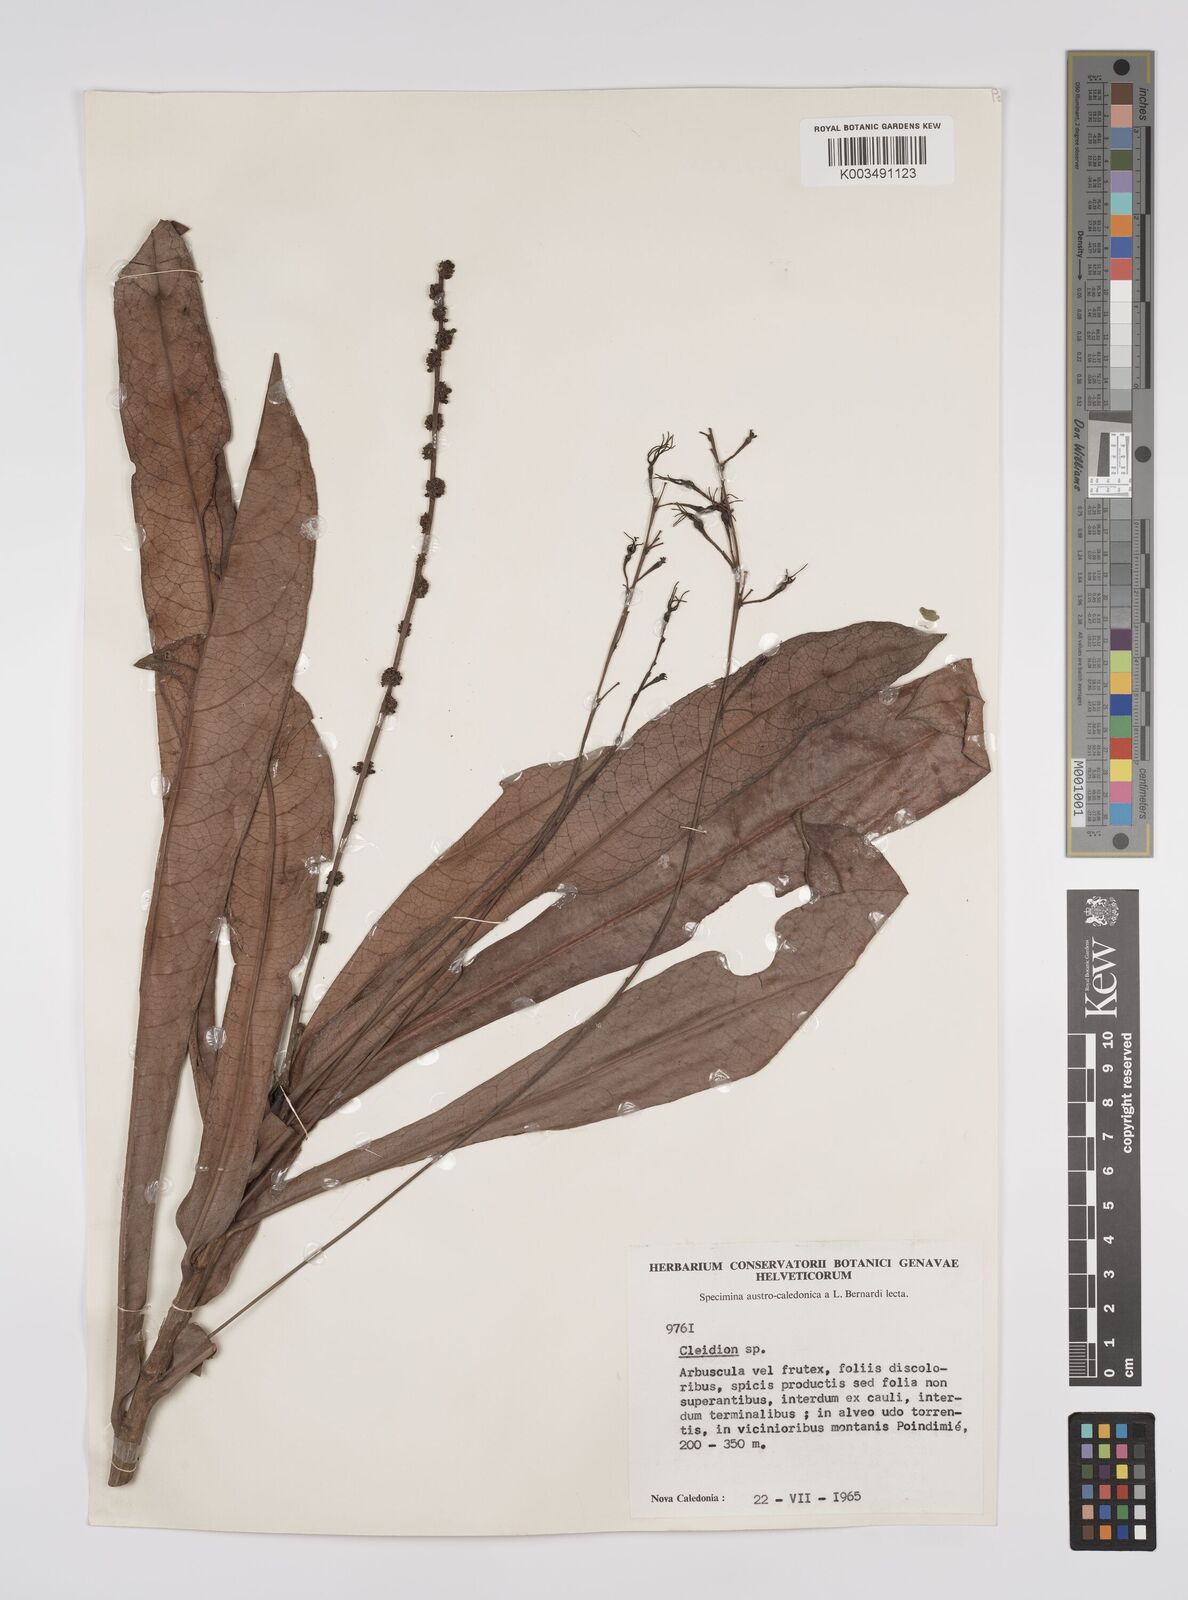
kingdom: Plantae
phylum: Tracheophyta
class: Magnoliopsida
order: Malpighiales
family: Euphorbiaceae
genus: Cleidion
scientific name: Cleidion lasiophyllum
